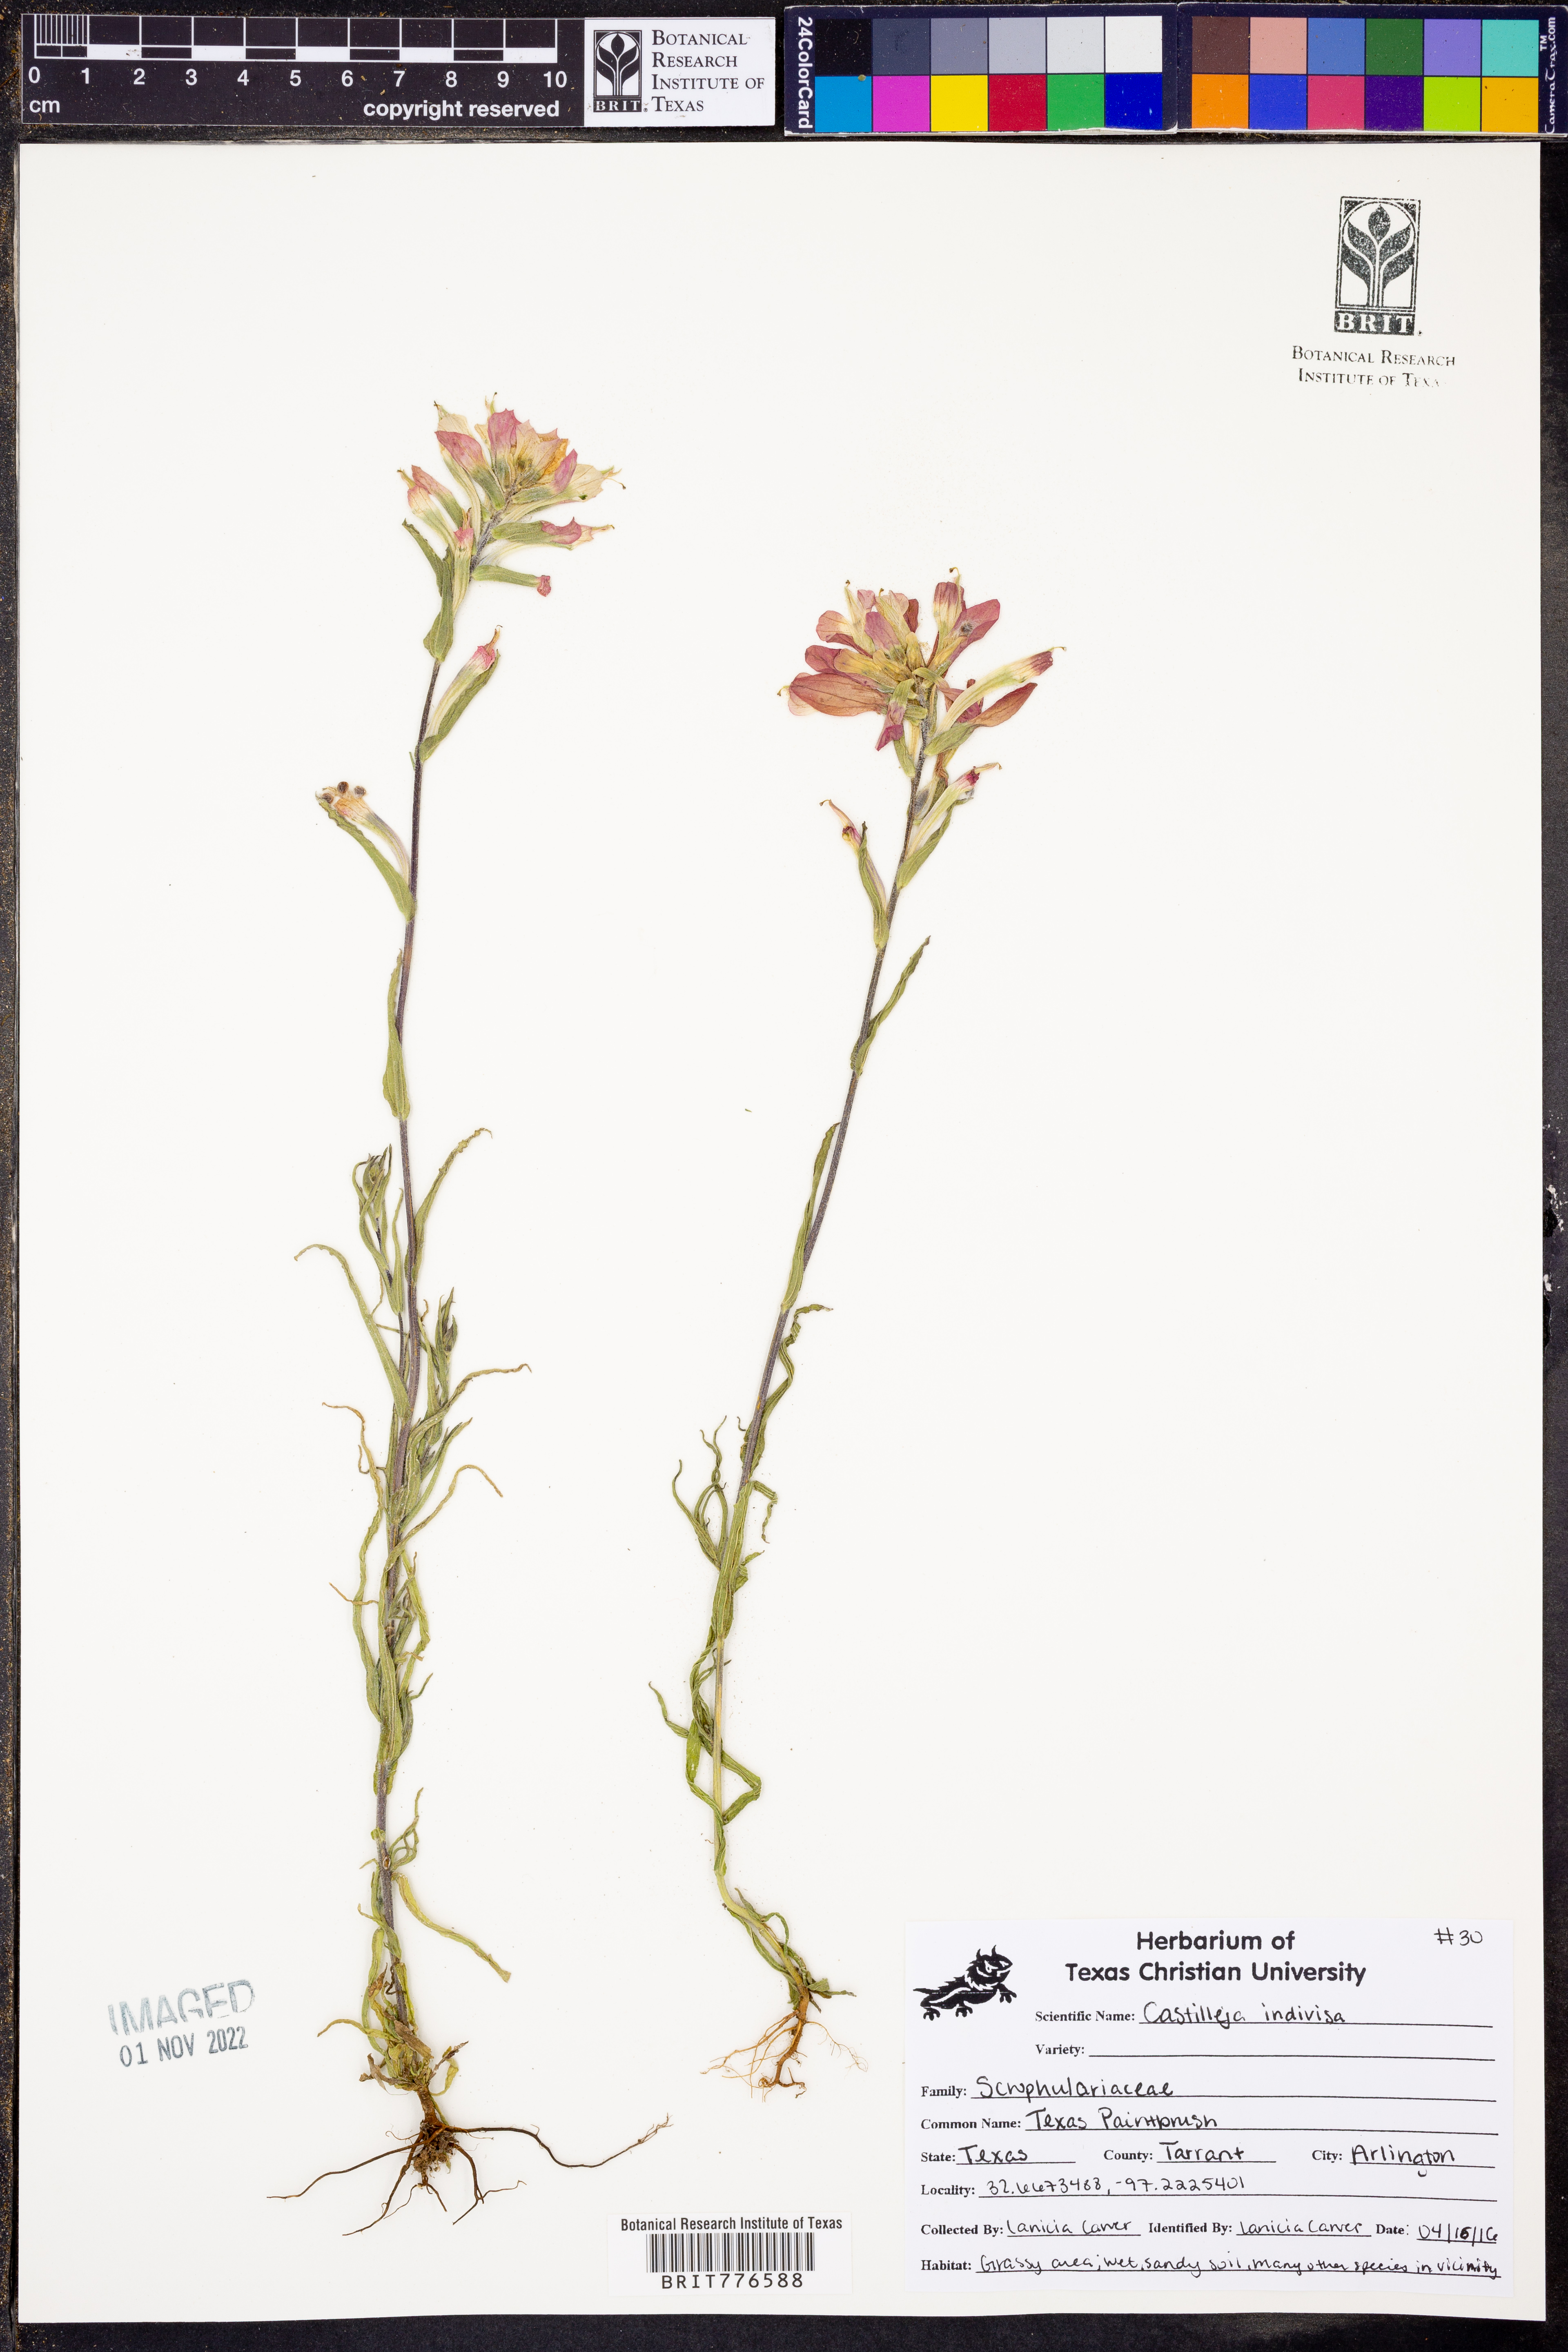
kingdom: Plantae
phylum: Tracheophyta
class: Magnoliopsida
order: Lamiales
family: Orobanchaceae
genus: Castilleja
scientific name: Castilleja indivisa
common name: Texas paintbrush
